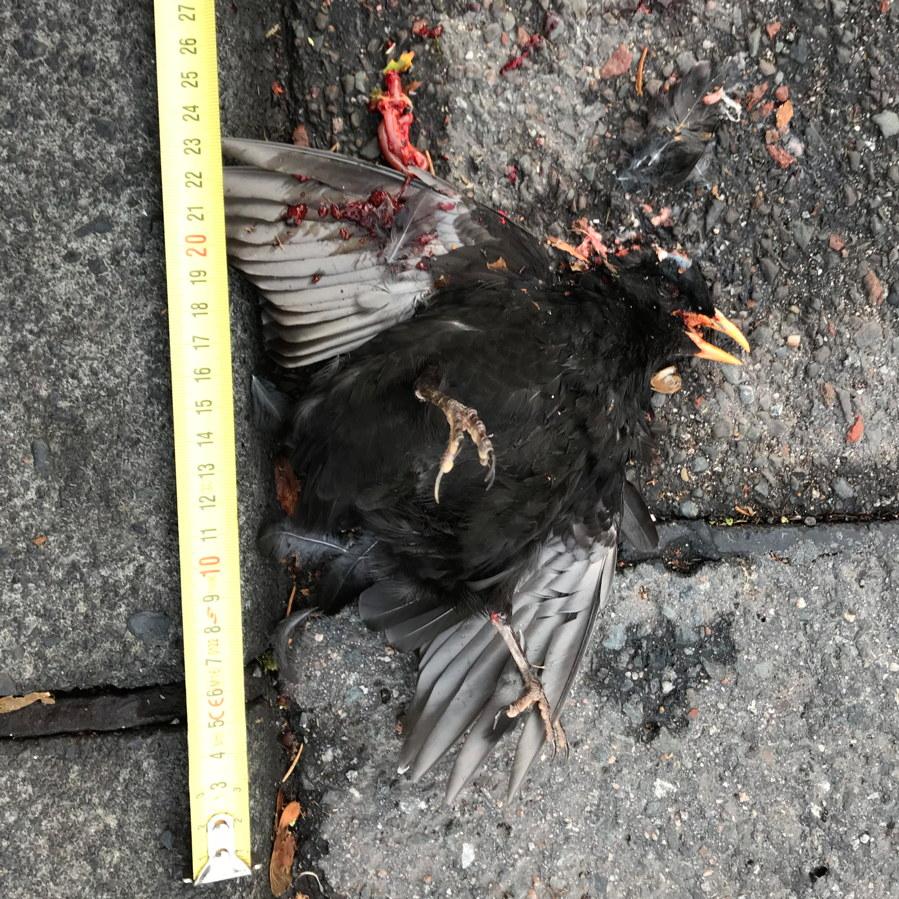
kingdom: Animalia
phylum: Chordata
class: Aves
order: Passeriformes
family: Turdidae
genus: Turdus
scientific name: Turdus merula
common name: Common blackbird
